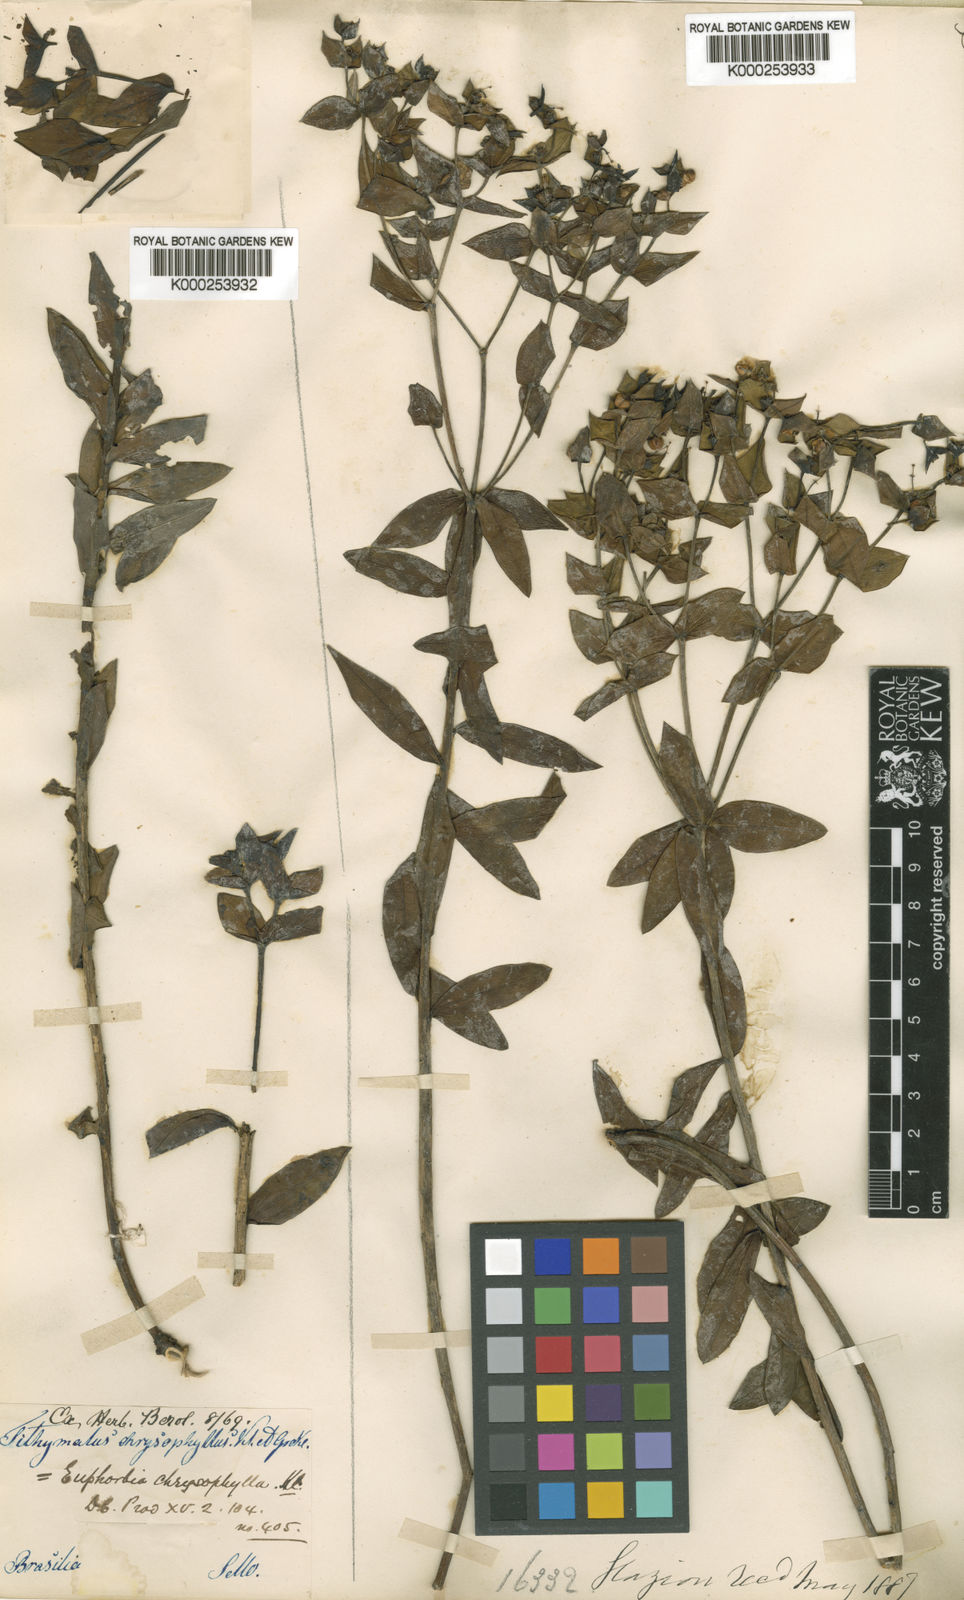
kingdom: Plantae
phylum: Tracheophyta
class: Magnoliopsida
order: Malpighiales
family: Euphorbiaceae
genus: Euphorbia
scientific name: Euphorbia collina
